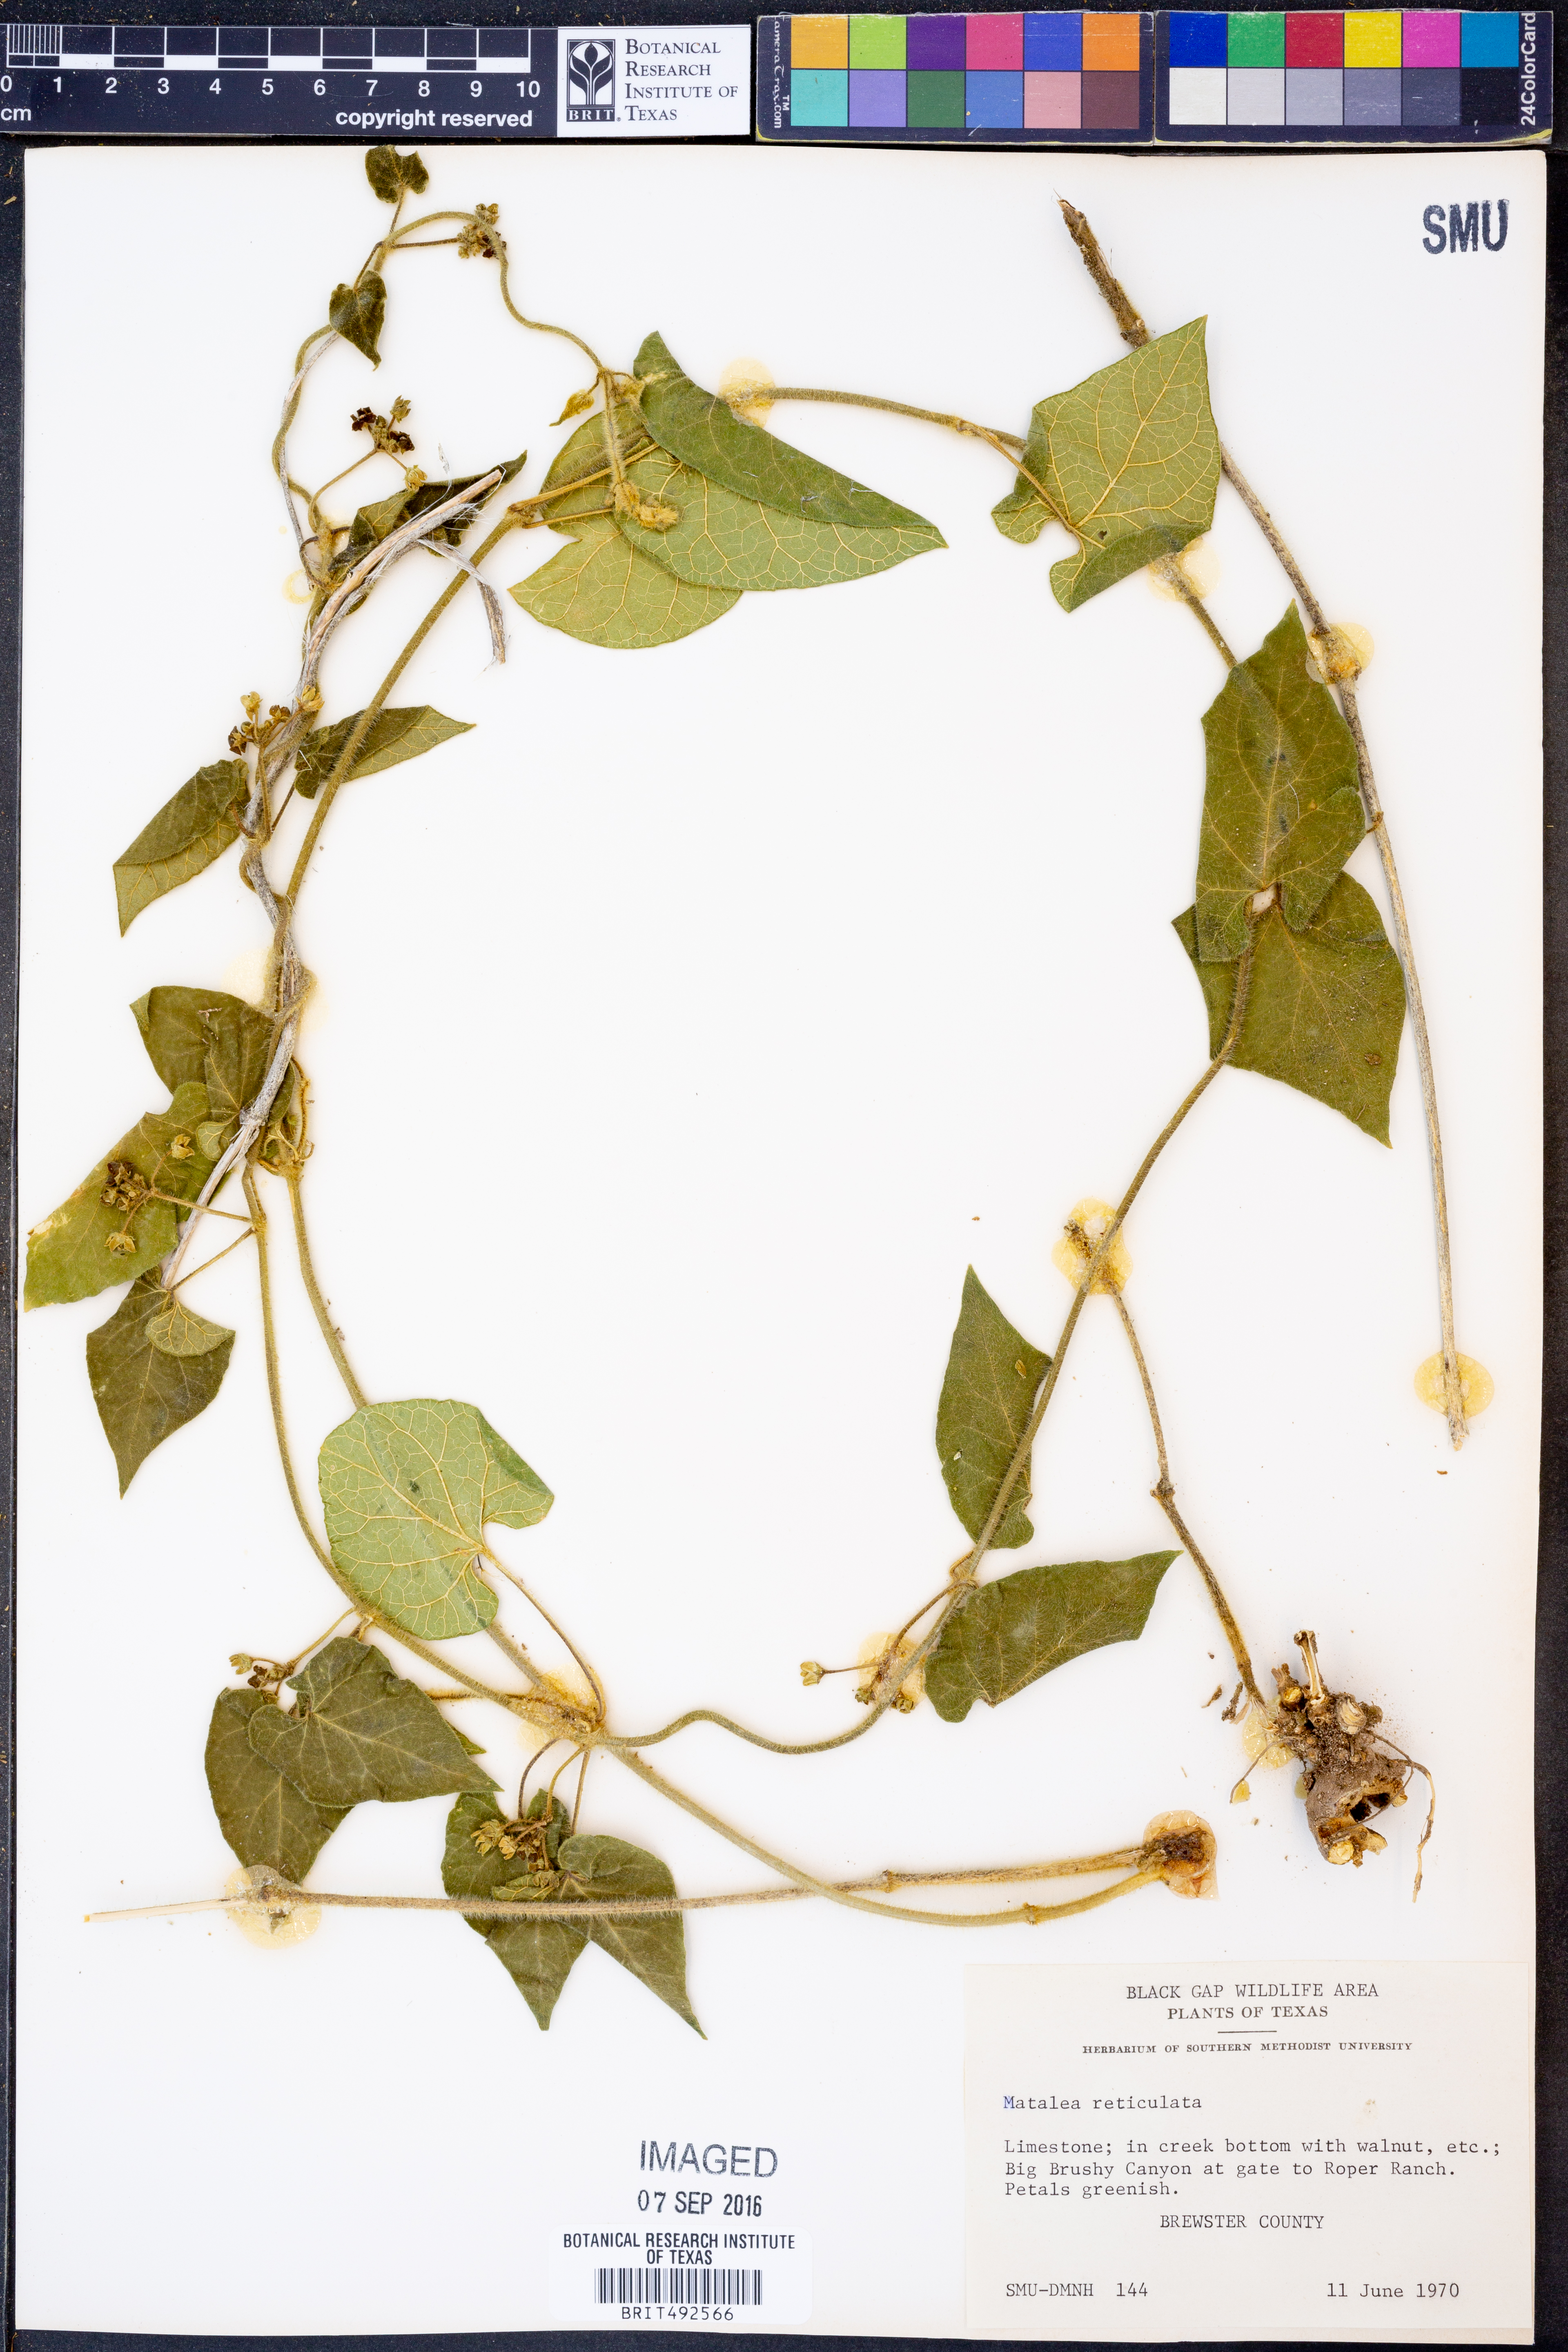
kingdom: Plantae
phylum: Tracheophyta
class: Magnoliopsida
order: Gentianales
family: Apocynaceae
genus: Dictyanthus
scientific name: Dictyanthus reticulatus
